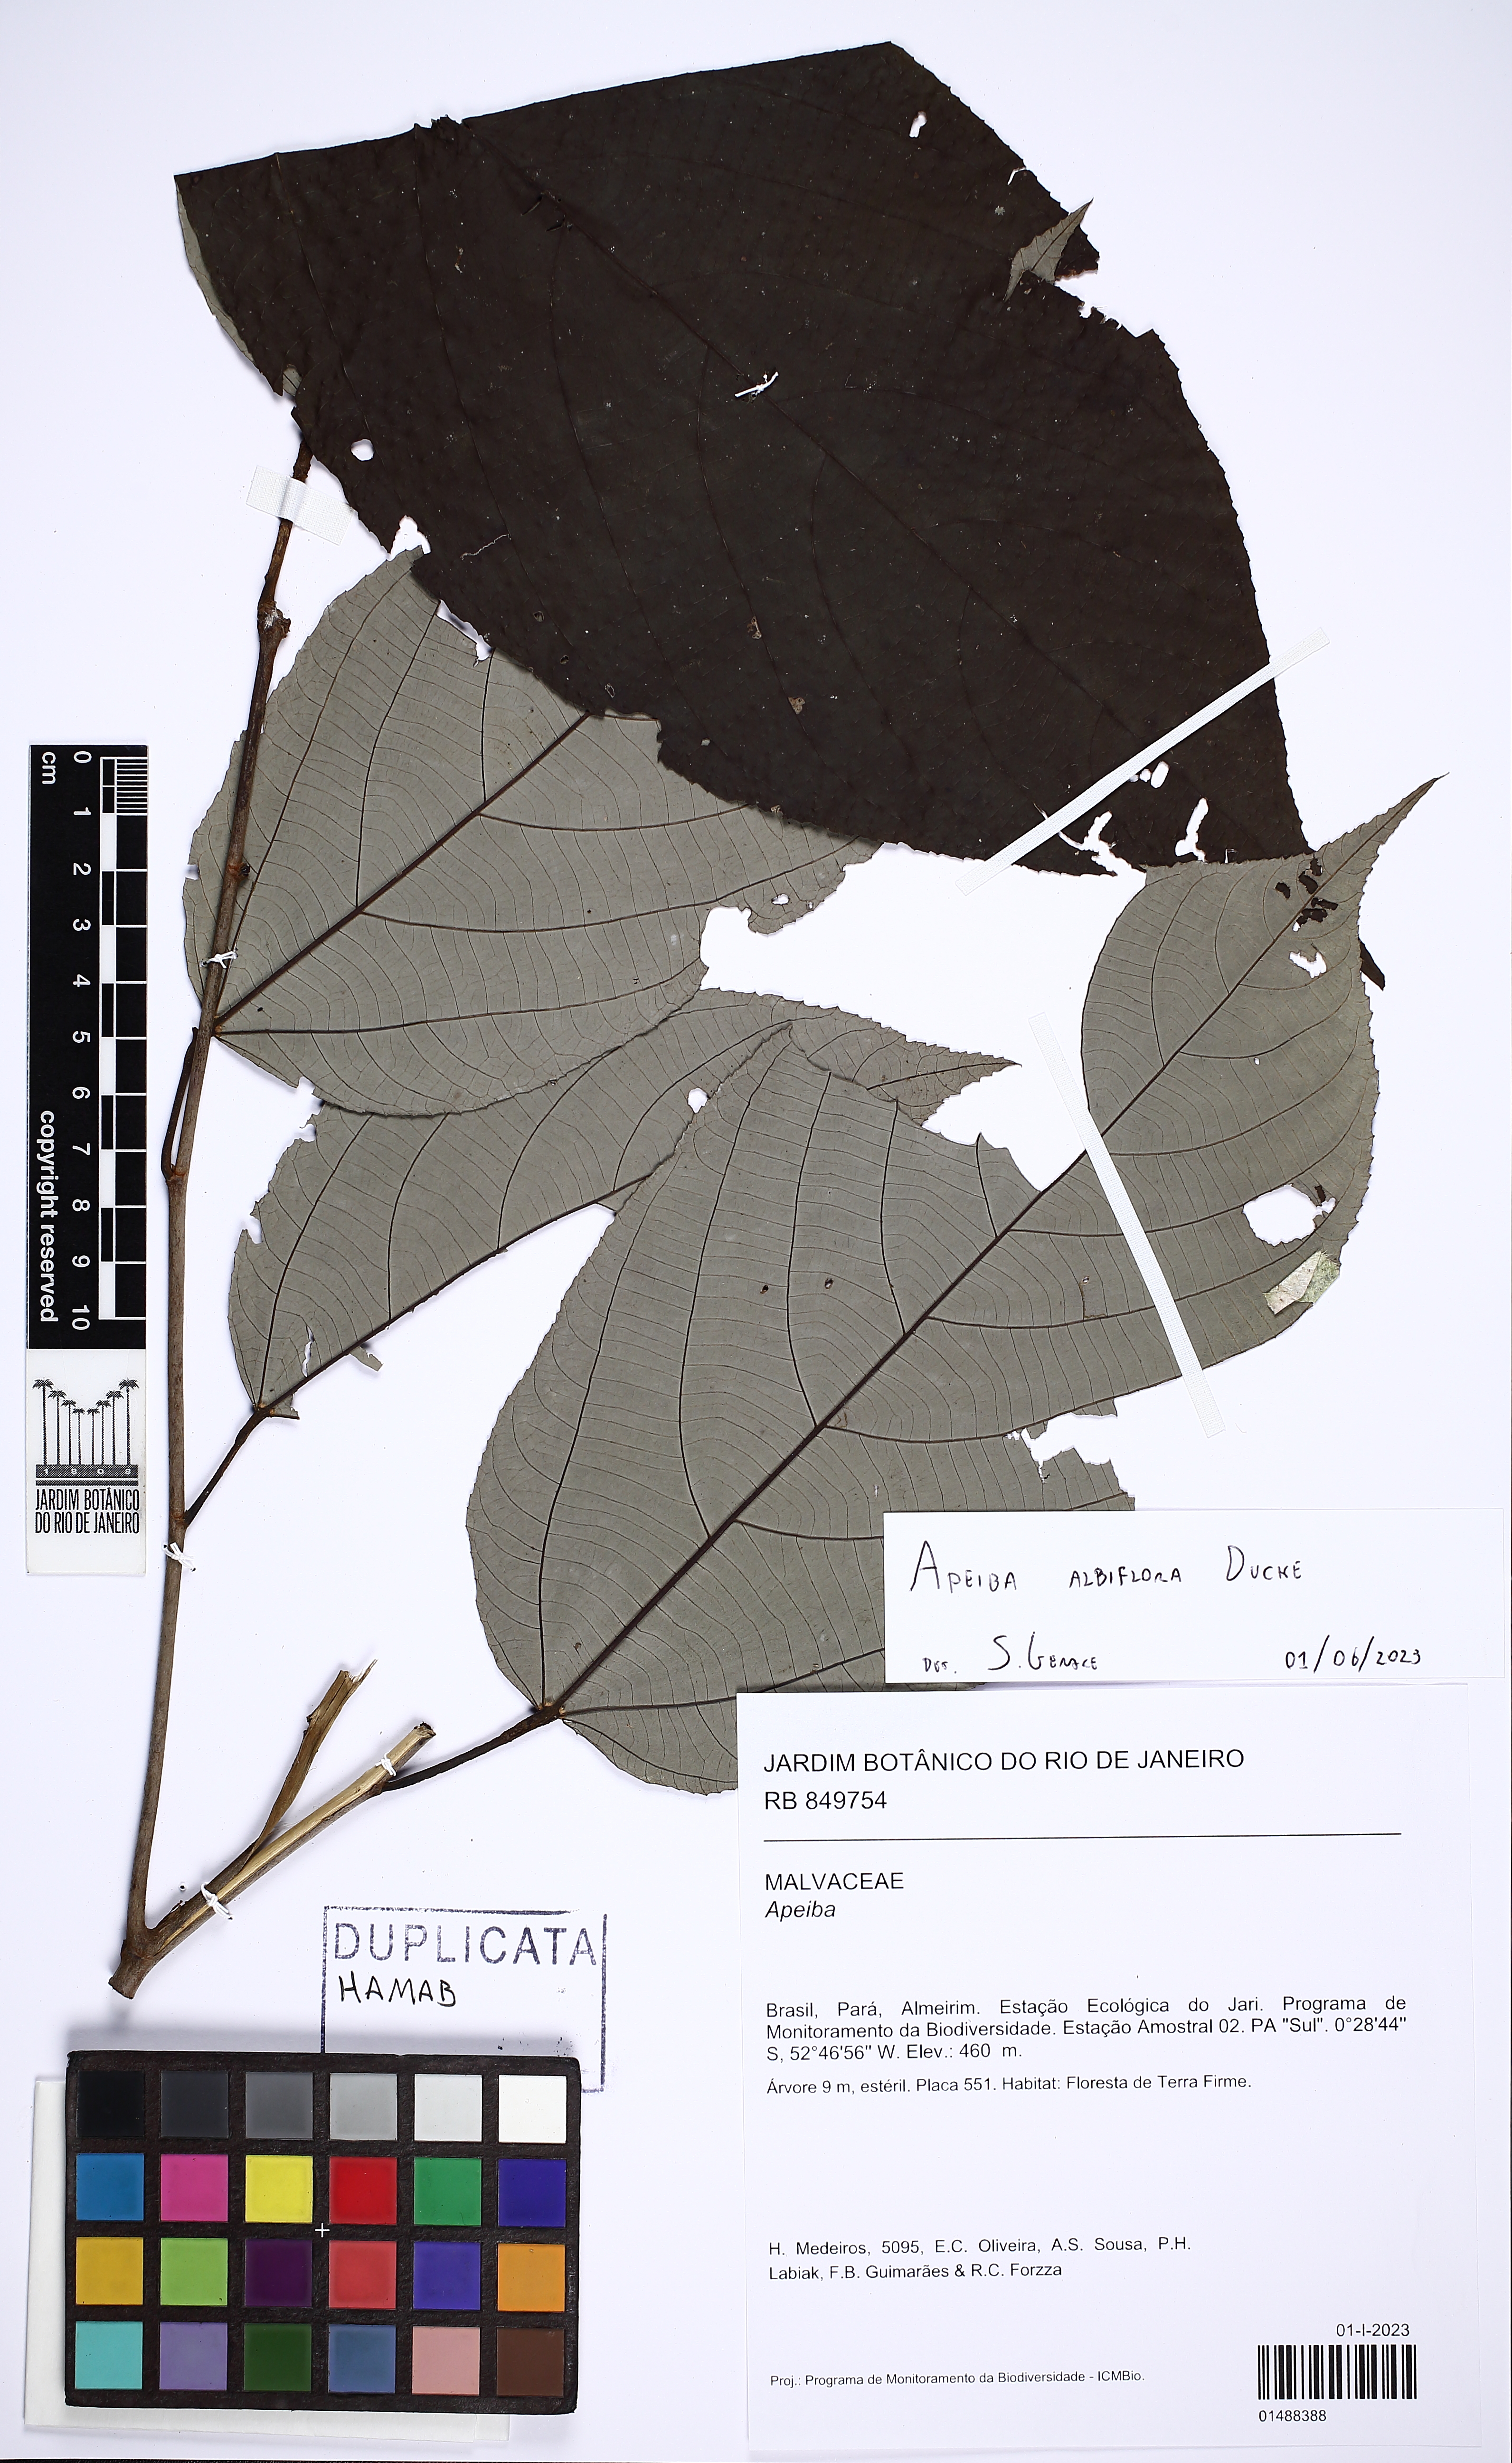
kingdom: Plantae
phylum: Tracheophyta
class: Magnoliopsida
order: Malvales
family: Malvaceae
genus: Apeiba
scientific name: Apeiba albiflora
